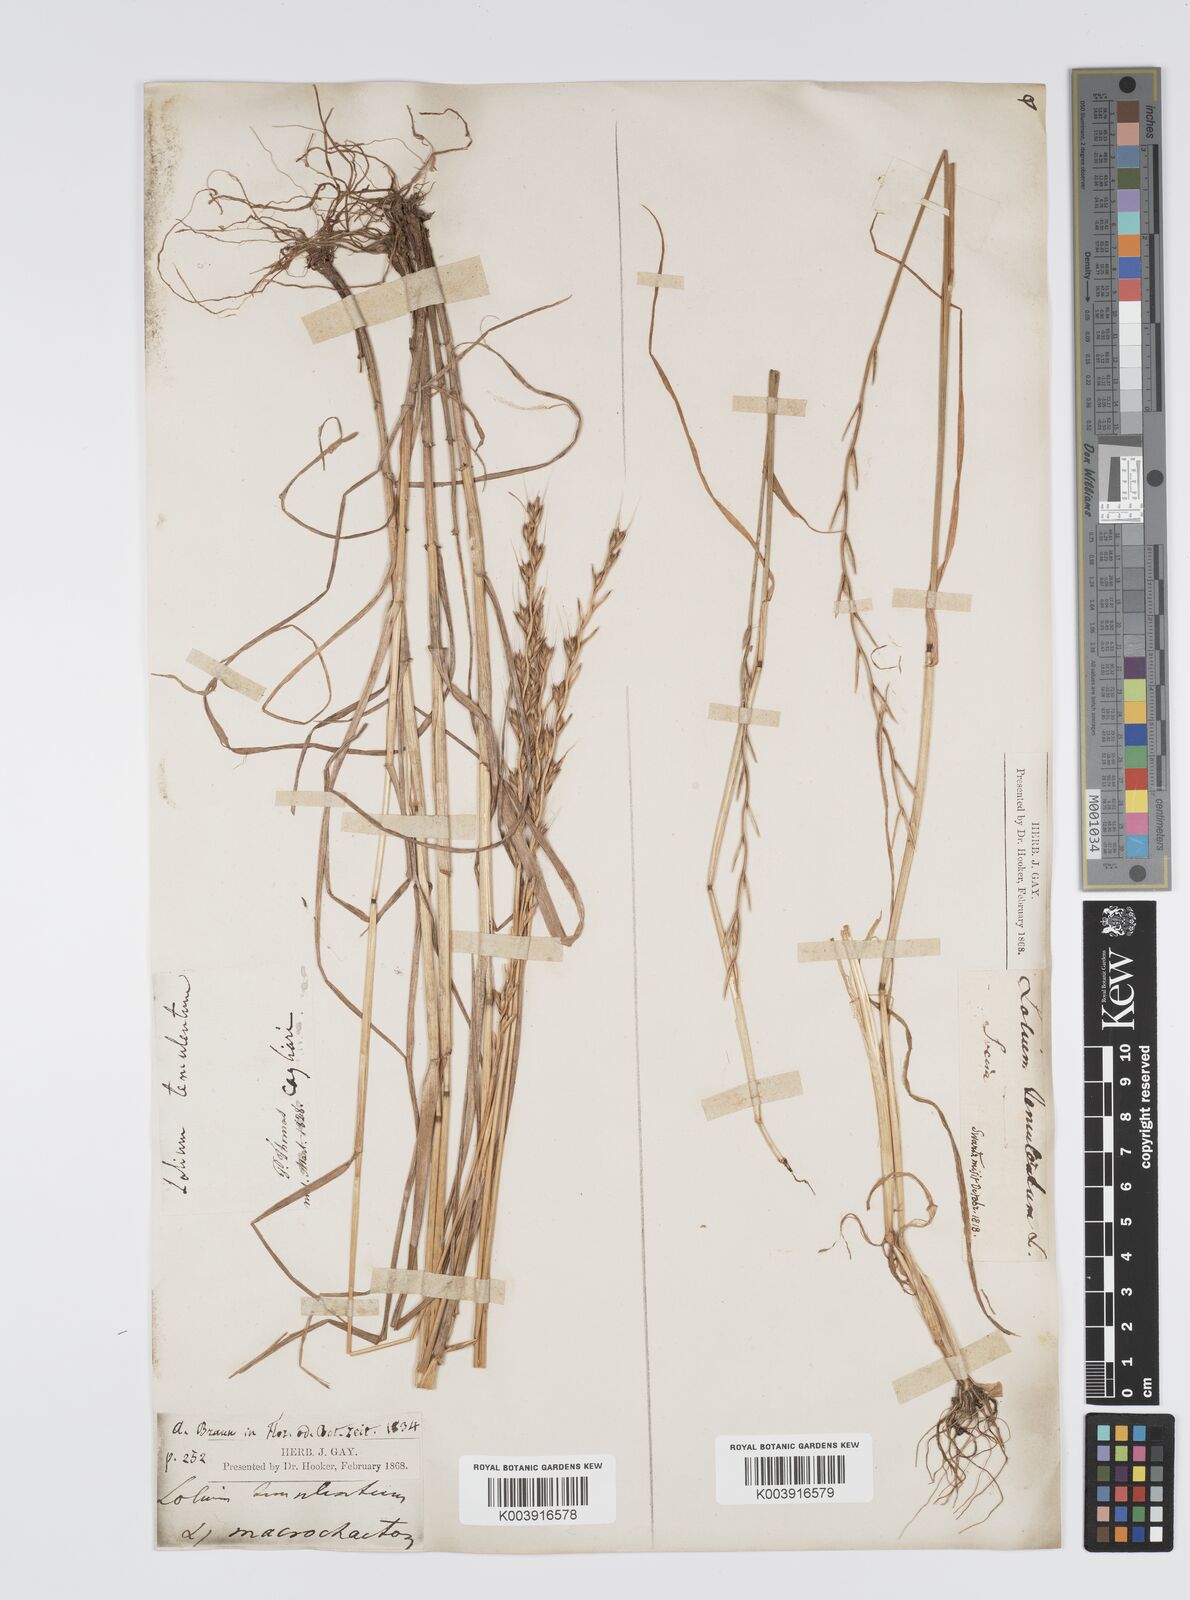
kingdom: Plantae
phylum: Tracheophyta
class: Liliopsida
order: Poales
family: Poaceae
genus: Lolium
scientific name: Lolium temulentum
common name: Darnel
